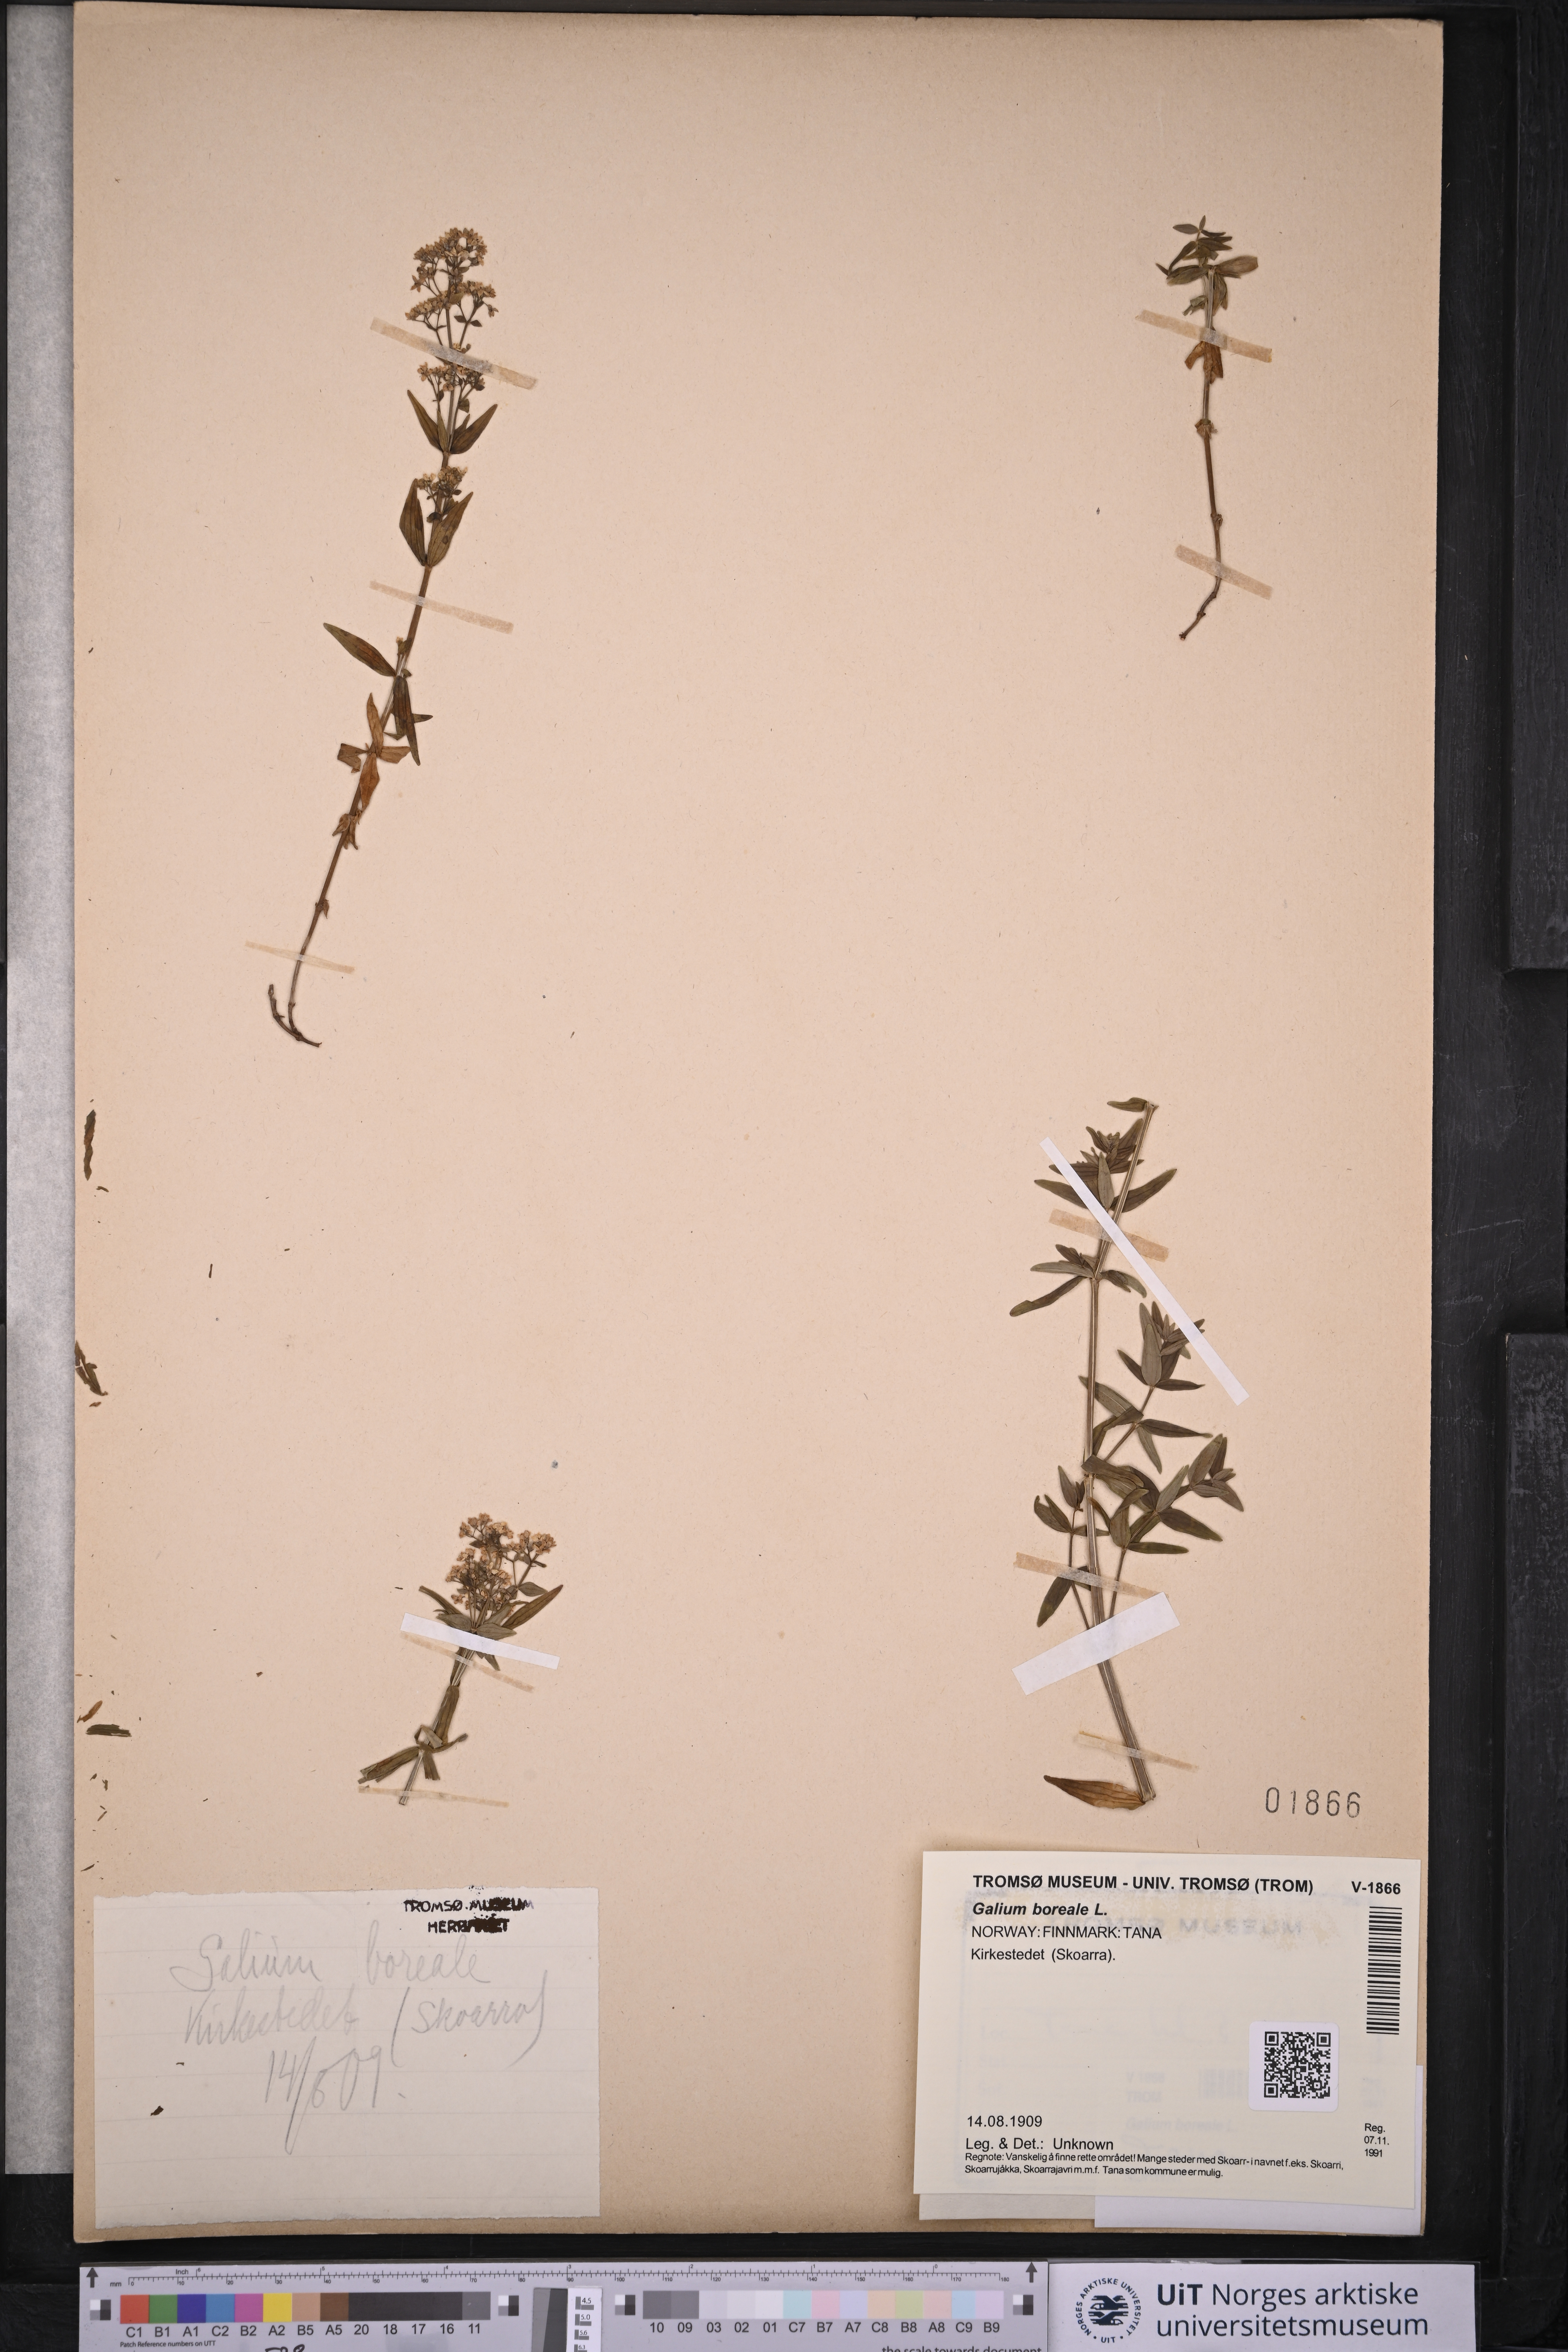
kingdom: Plantae
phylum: Tracheophyta
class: Magnoliopsida
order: Gentianales
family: Rubiaceae
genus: Galium
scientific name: Galium boreale
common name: Northern bedstraw
